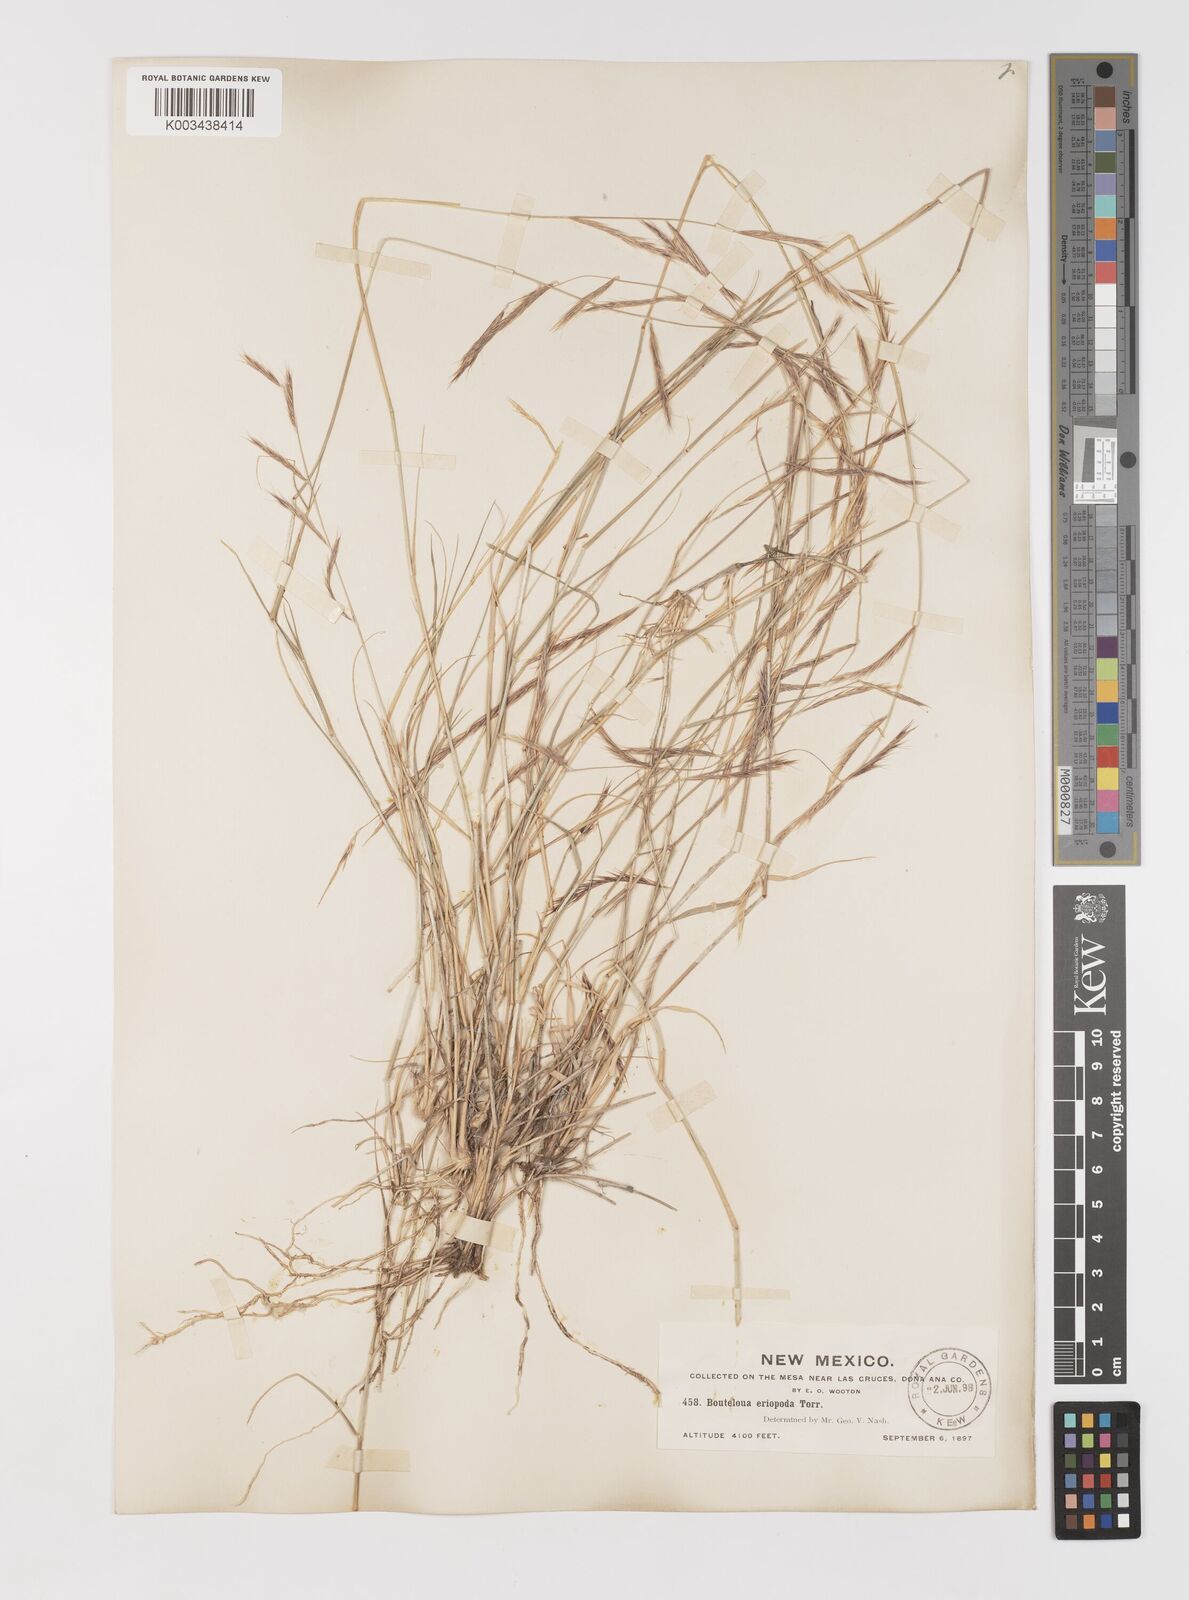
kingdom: Plantae
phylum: Tracheophyta
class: Liliopsida
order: Poales
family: Poaceae
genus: Bouteloua
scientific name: Bouteloua eriopoda
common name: Woolly foot grama
